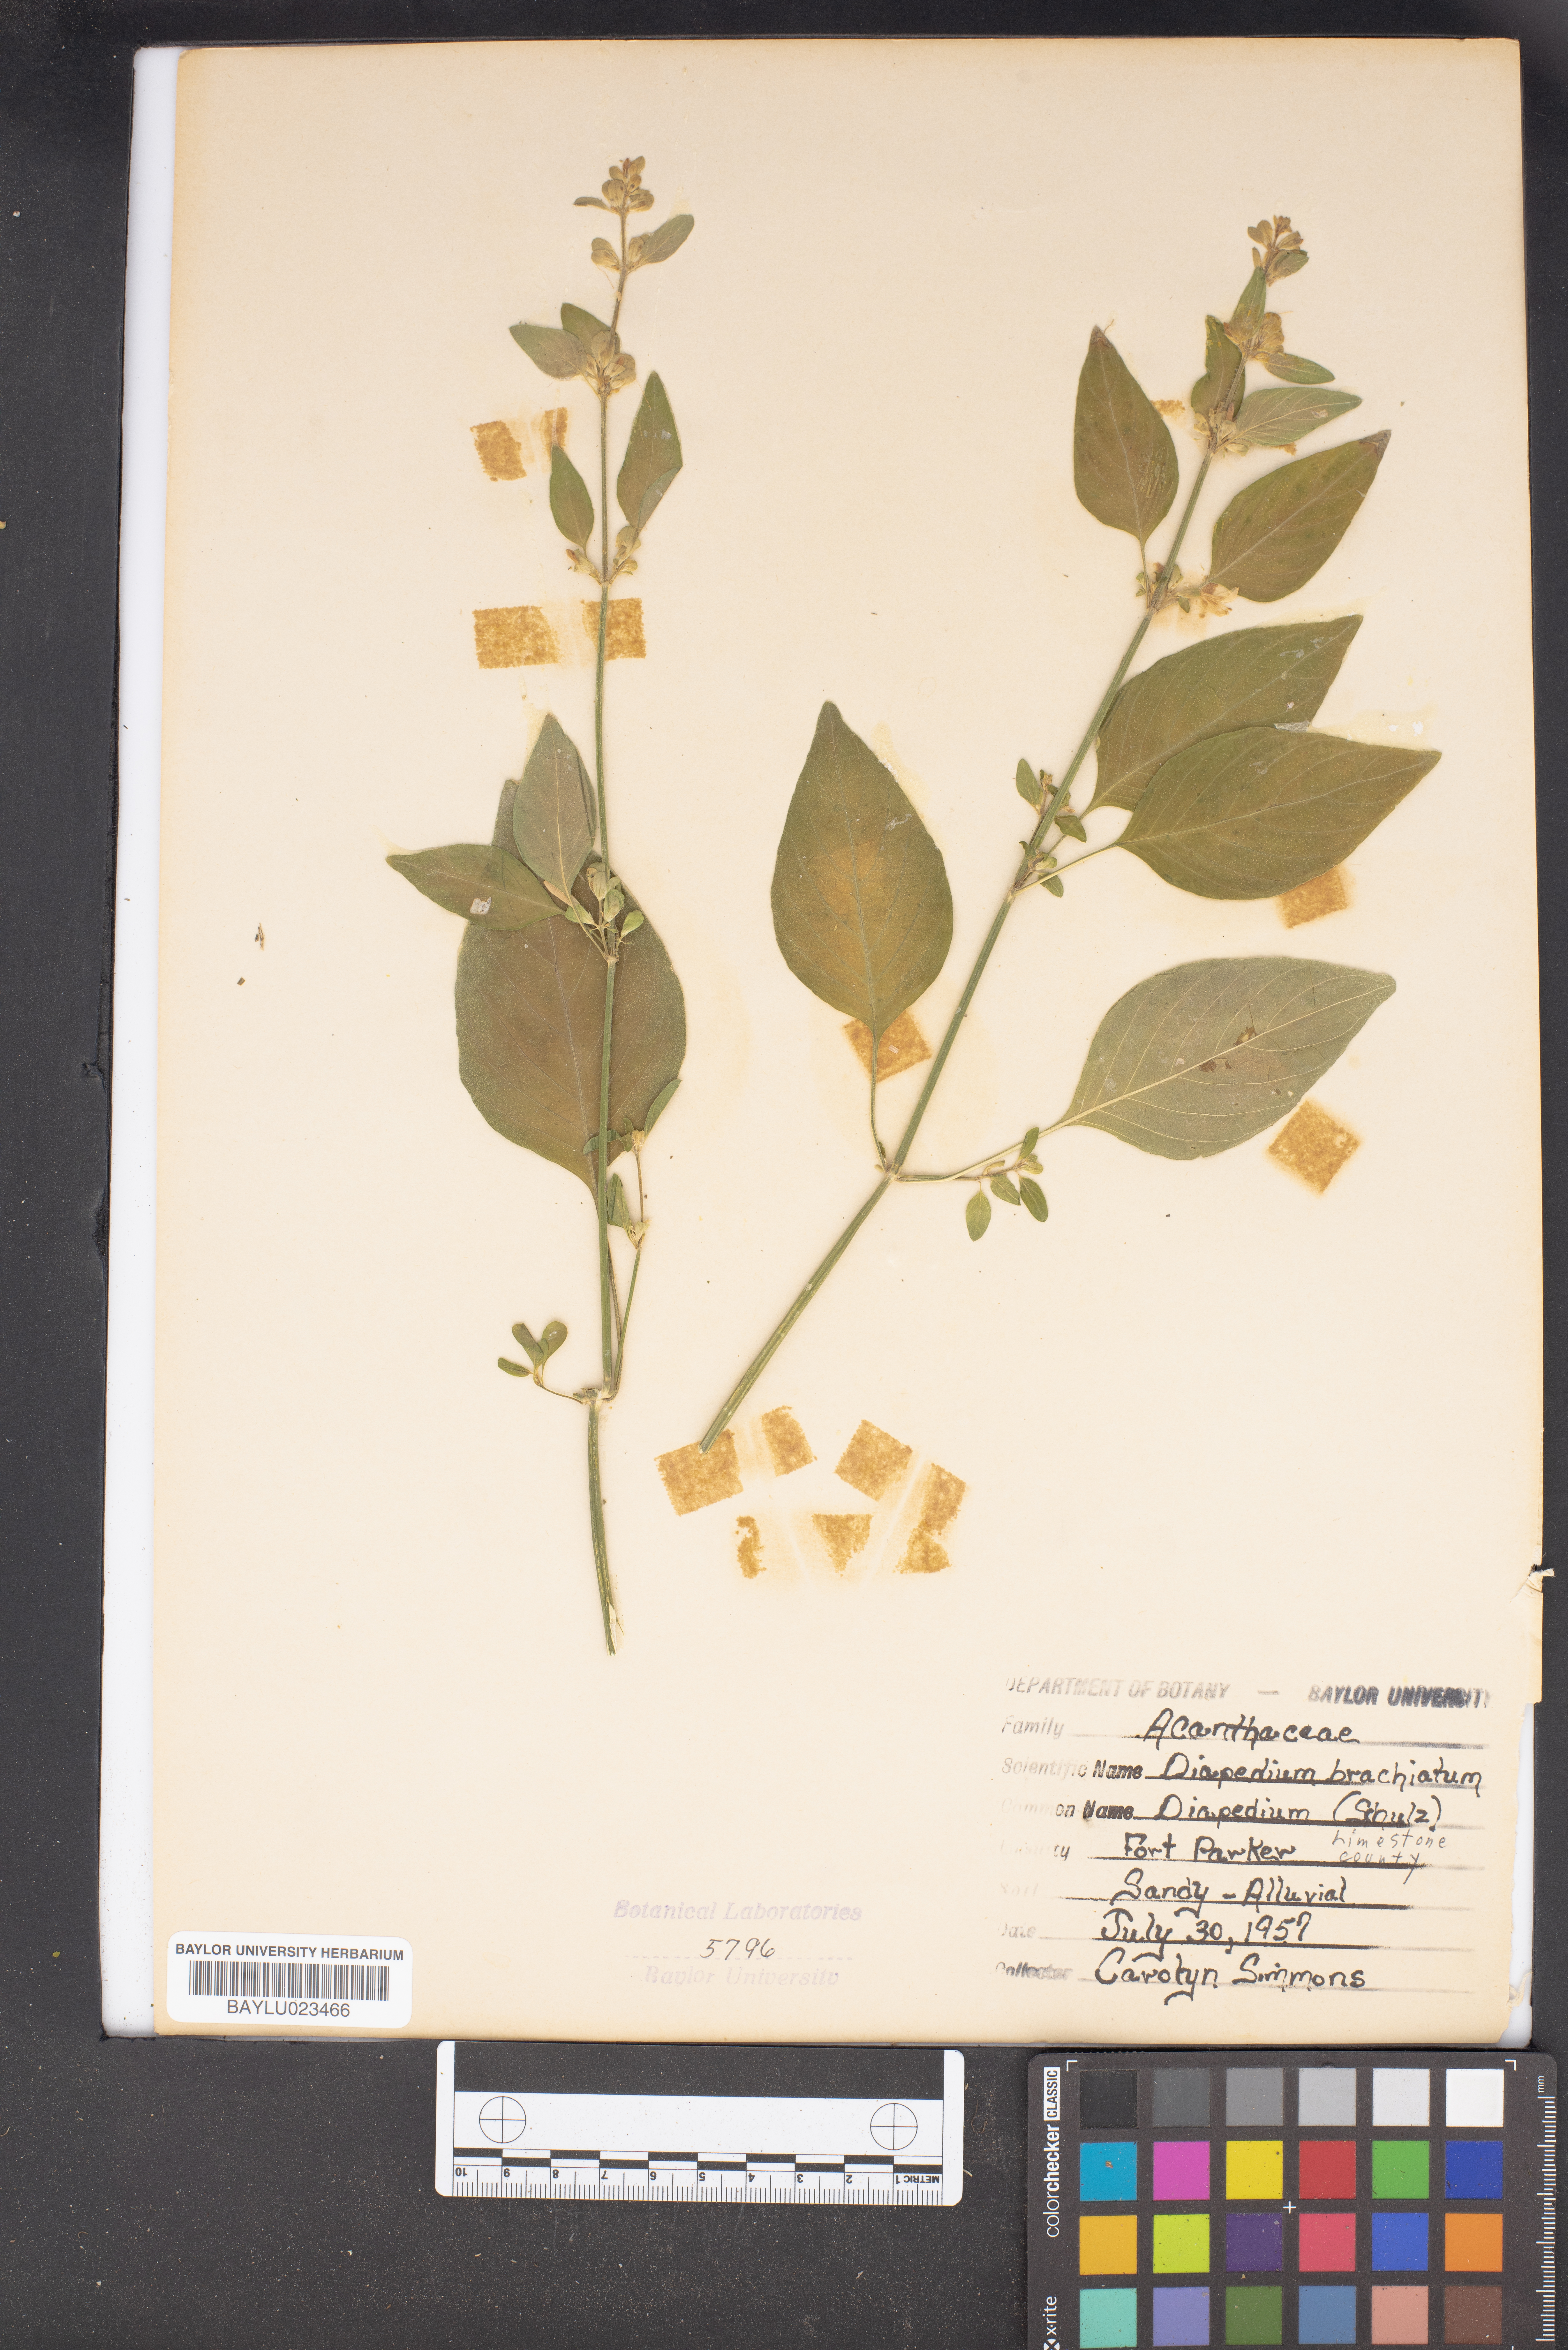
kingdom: Plantae
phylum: Tracheophyta
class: Magnoliopsida
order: Lamiales
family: Acanthaceae
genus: Dicliptera
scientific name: Dicliptera brachiata
